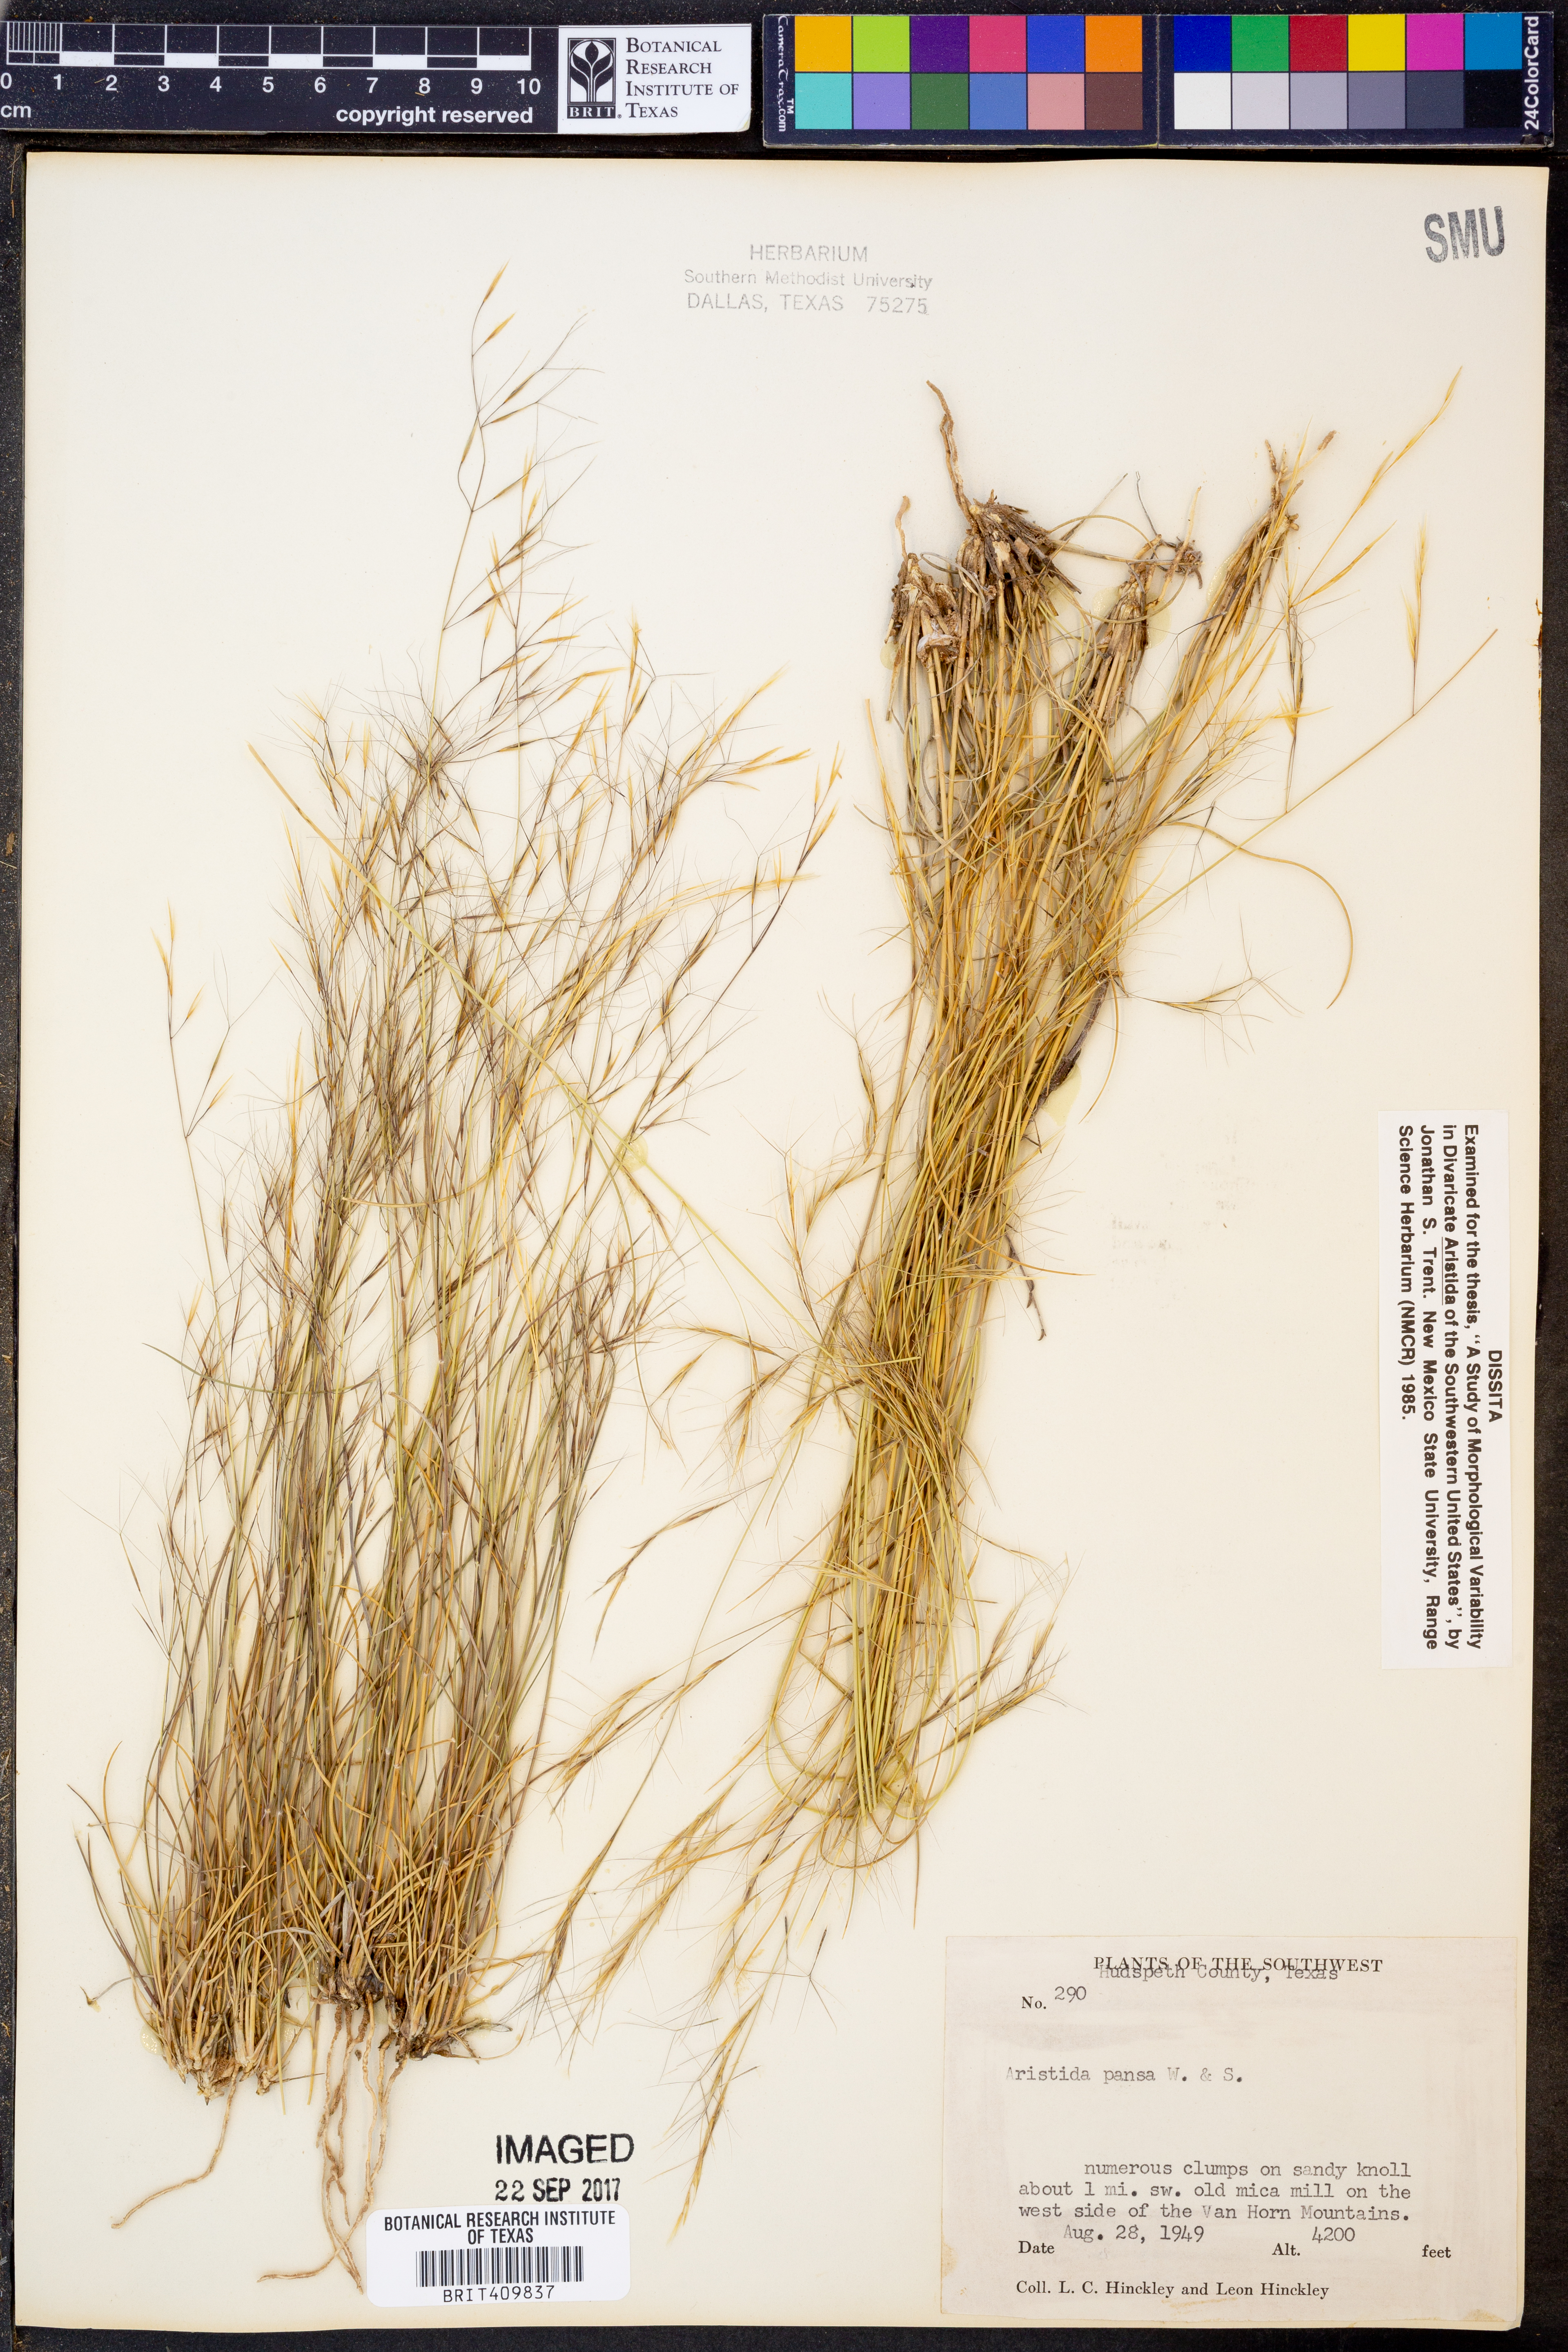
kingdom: Plantae
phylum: Tracheophyta
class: Liliopsida
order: Poales
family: Poaceae
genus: Aristida
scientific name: Aristida pansa
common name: Wooton's three-awn
